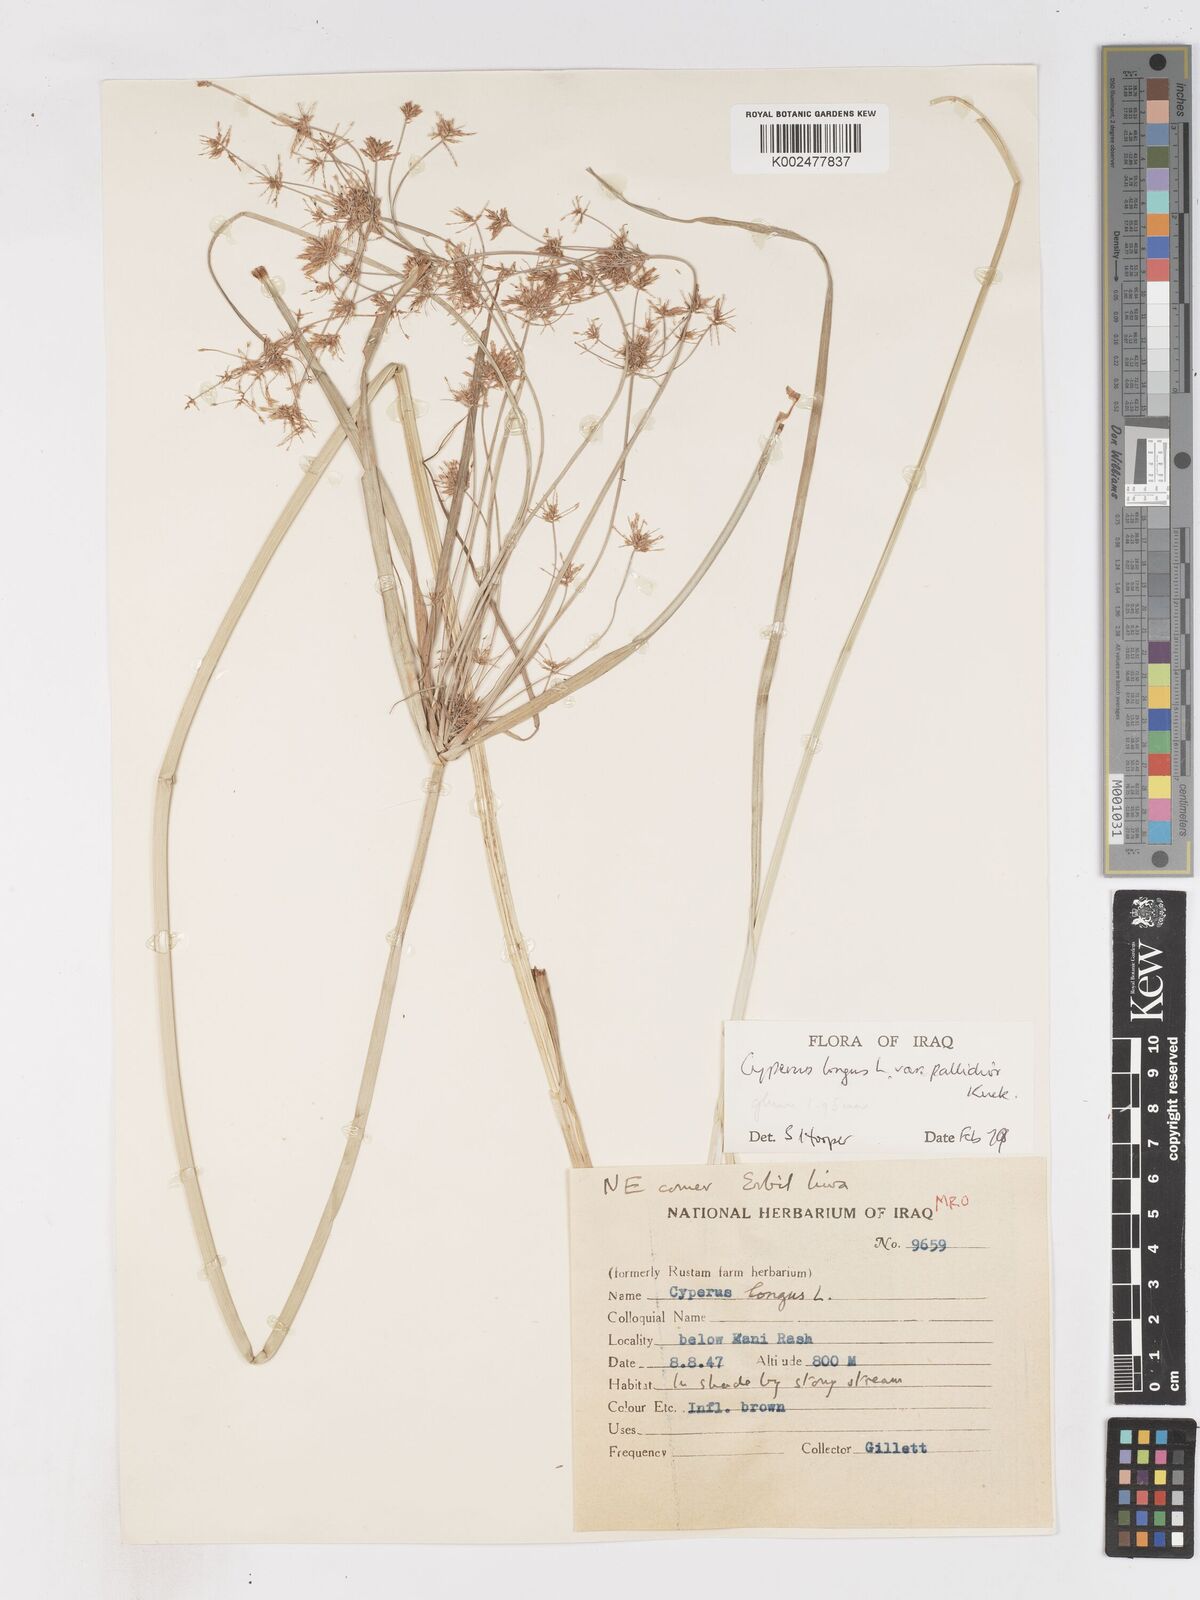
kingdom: Plantae
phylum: Tracheophyta
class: Liliopsida
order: Poales
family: Cyperaceae
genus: Cyperus
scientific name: Cyperus longus
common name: Galingale
